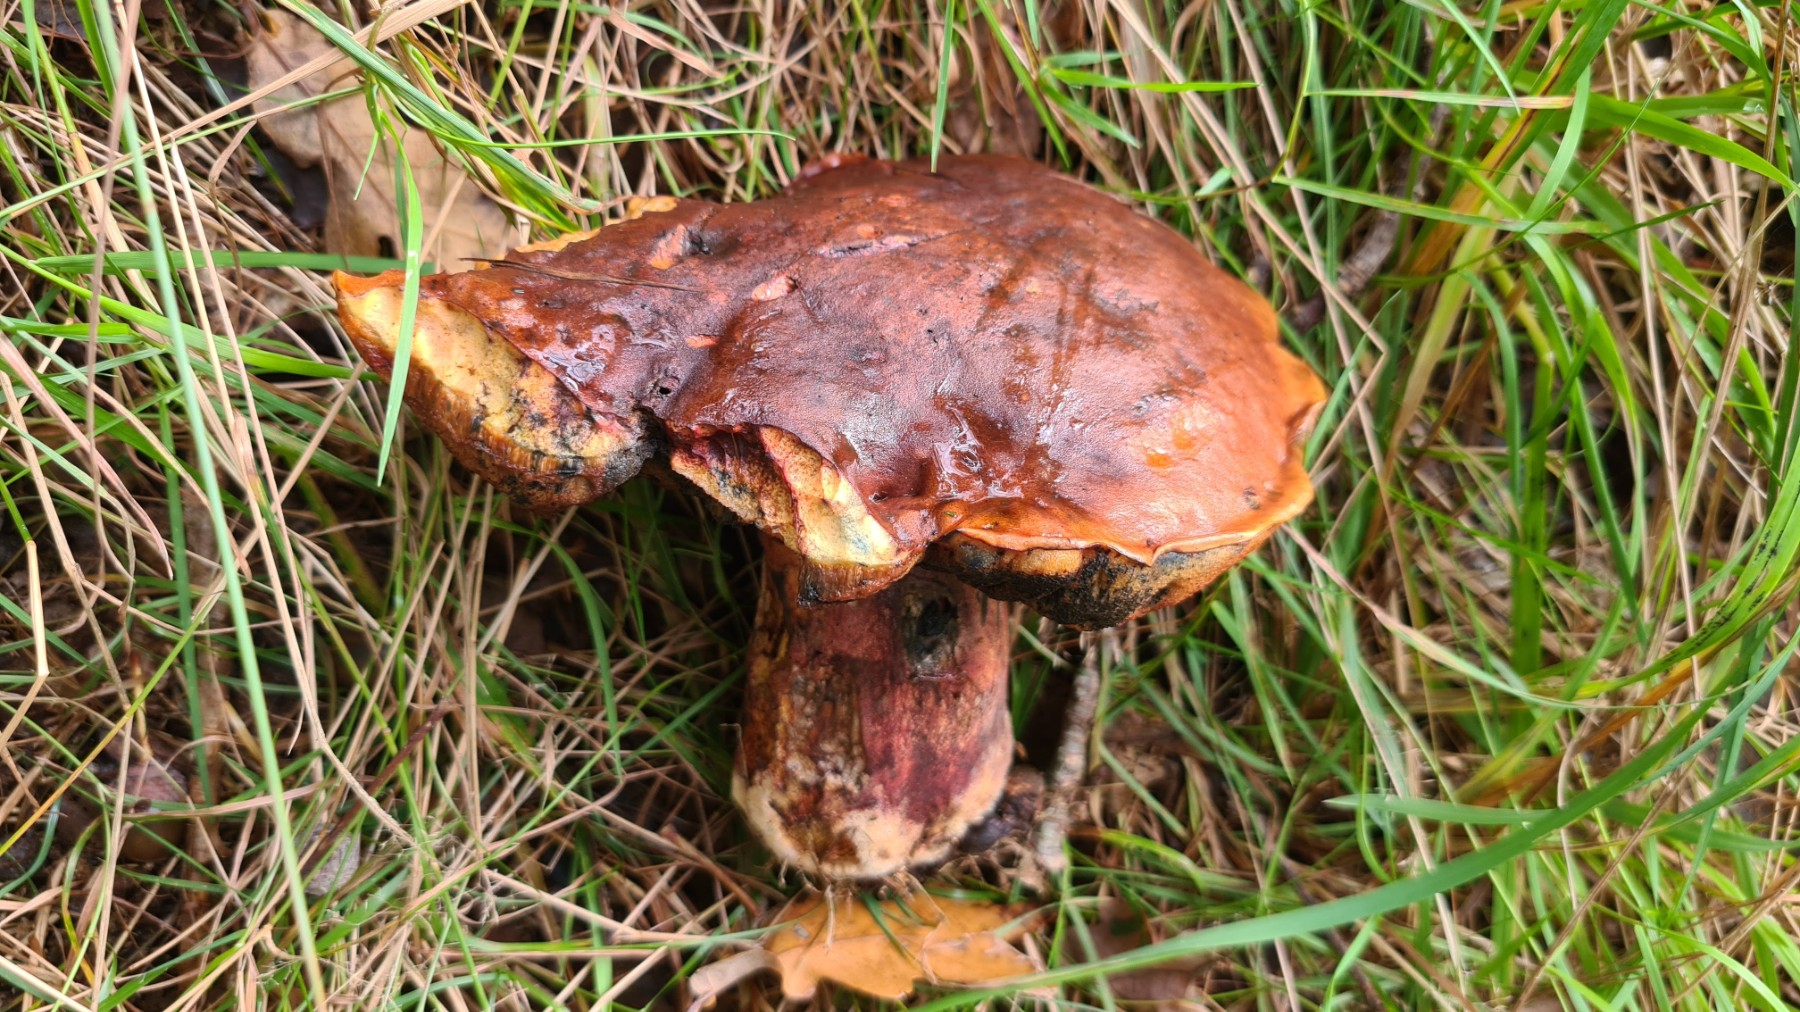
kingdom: Fungi
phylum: Basidiomycota
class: Agaricomycetes
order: Boletales
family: Boletaceae
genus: Neoboletus
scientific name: Neoboletus erythropus
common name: punktstokket indigorørhat
